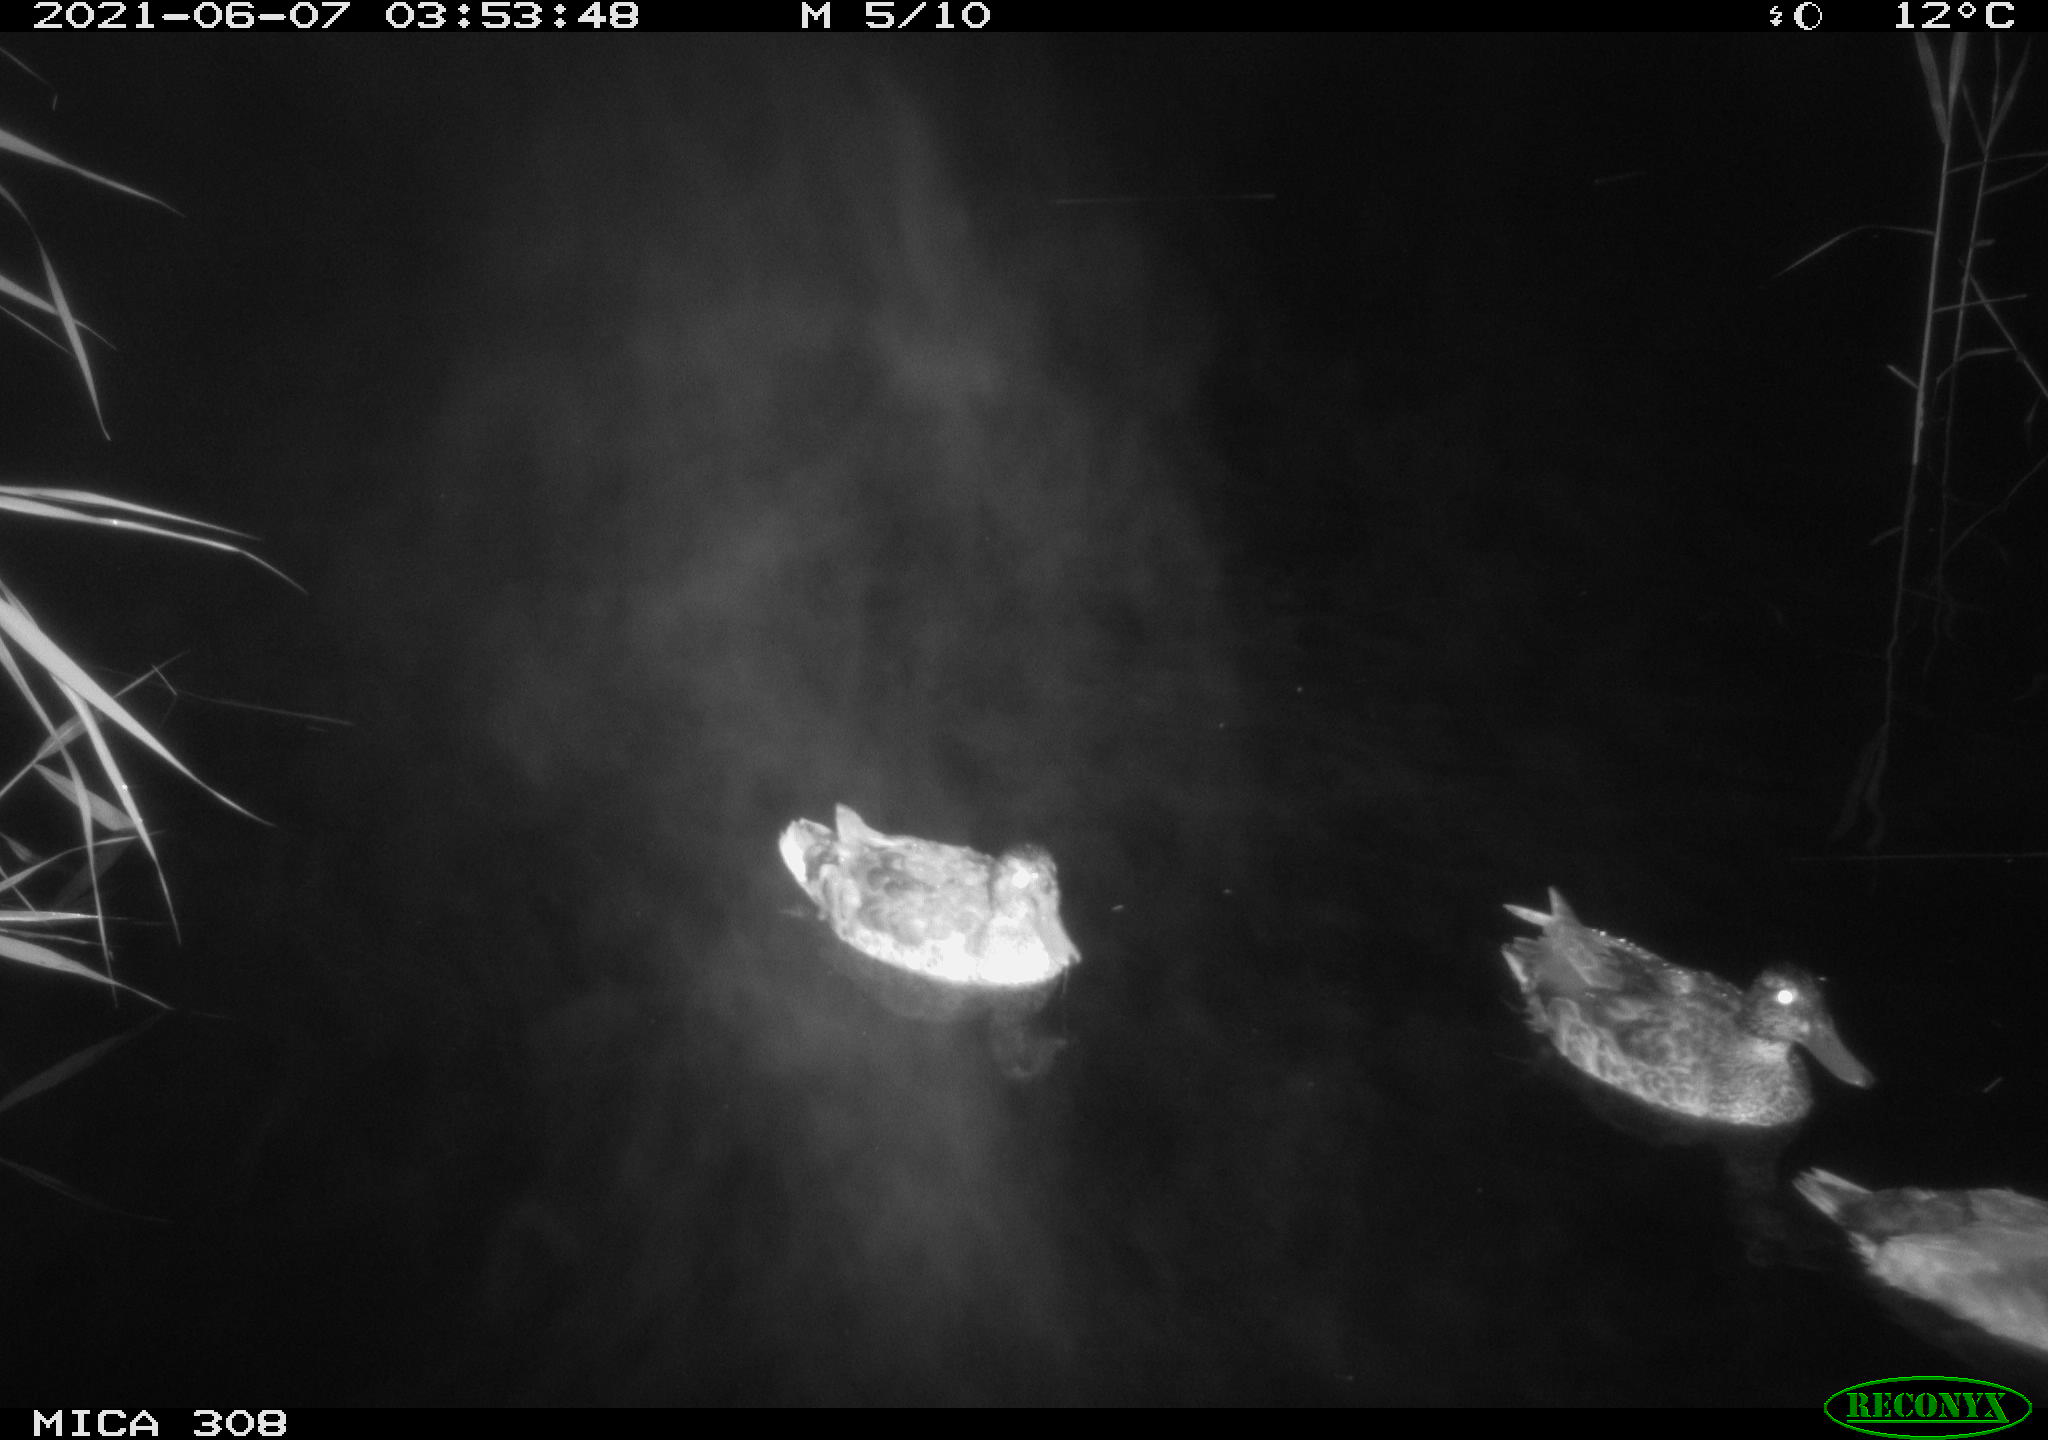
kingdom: Animalia
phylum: Chordata
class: Aves
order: Anseriformes
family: Anatidae
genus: Anas
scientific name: Anas platyrhynchos
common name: Mallard
